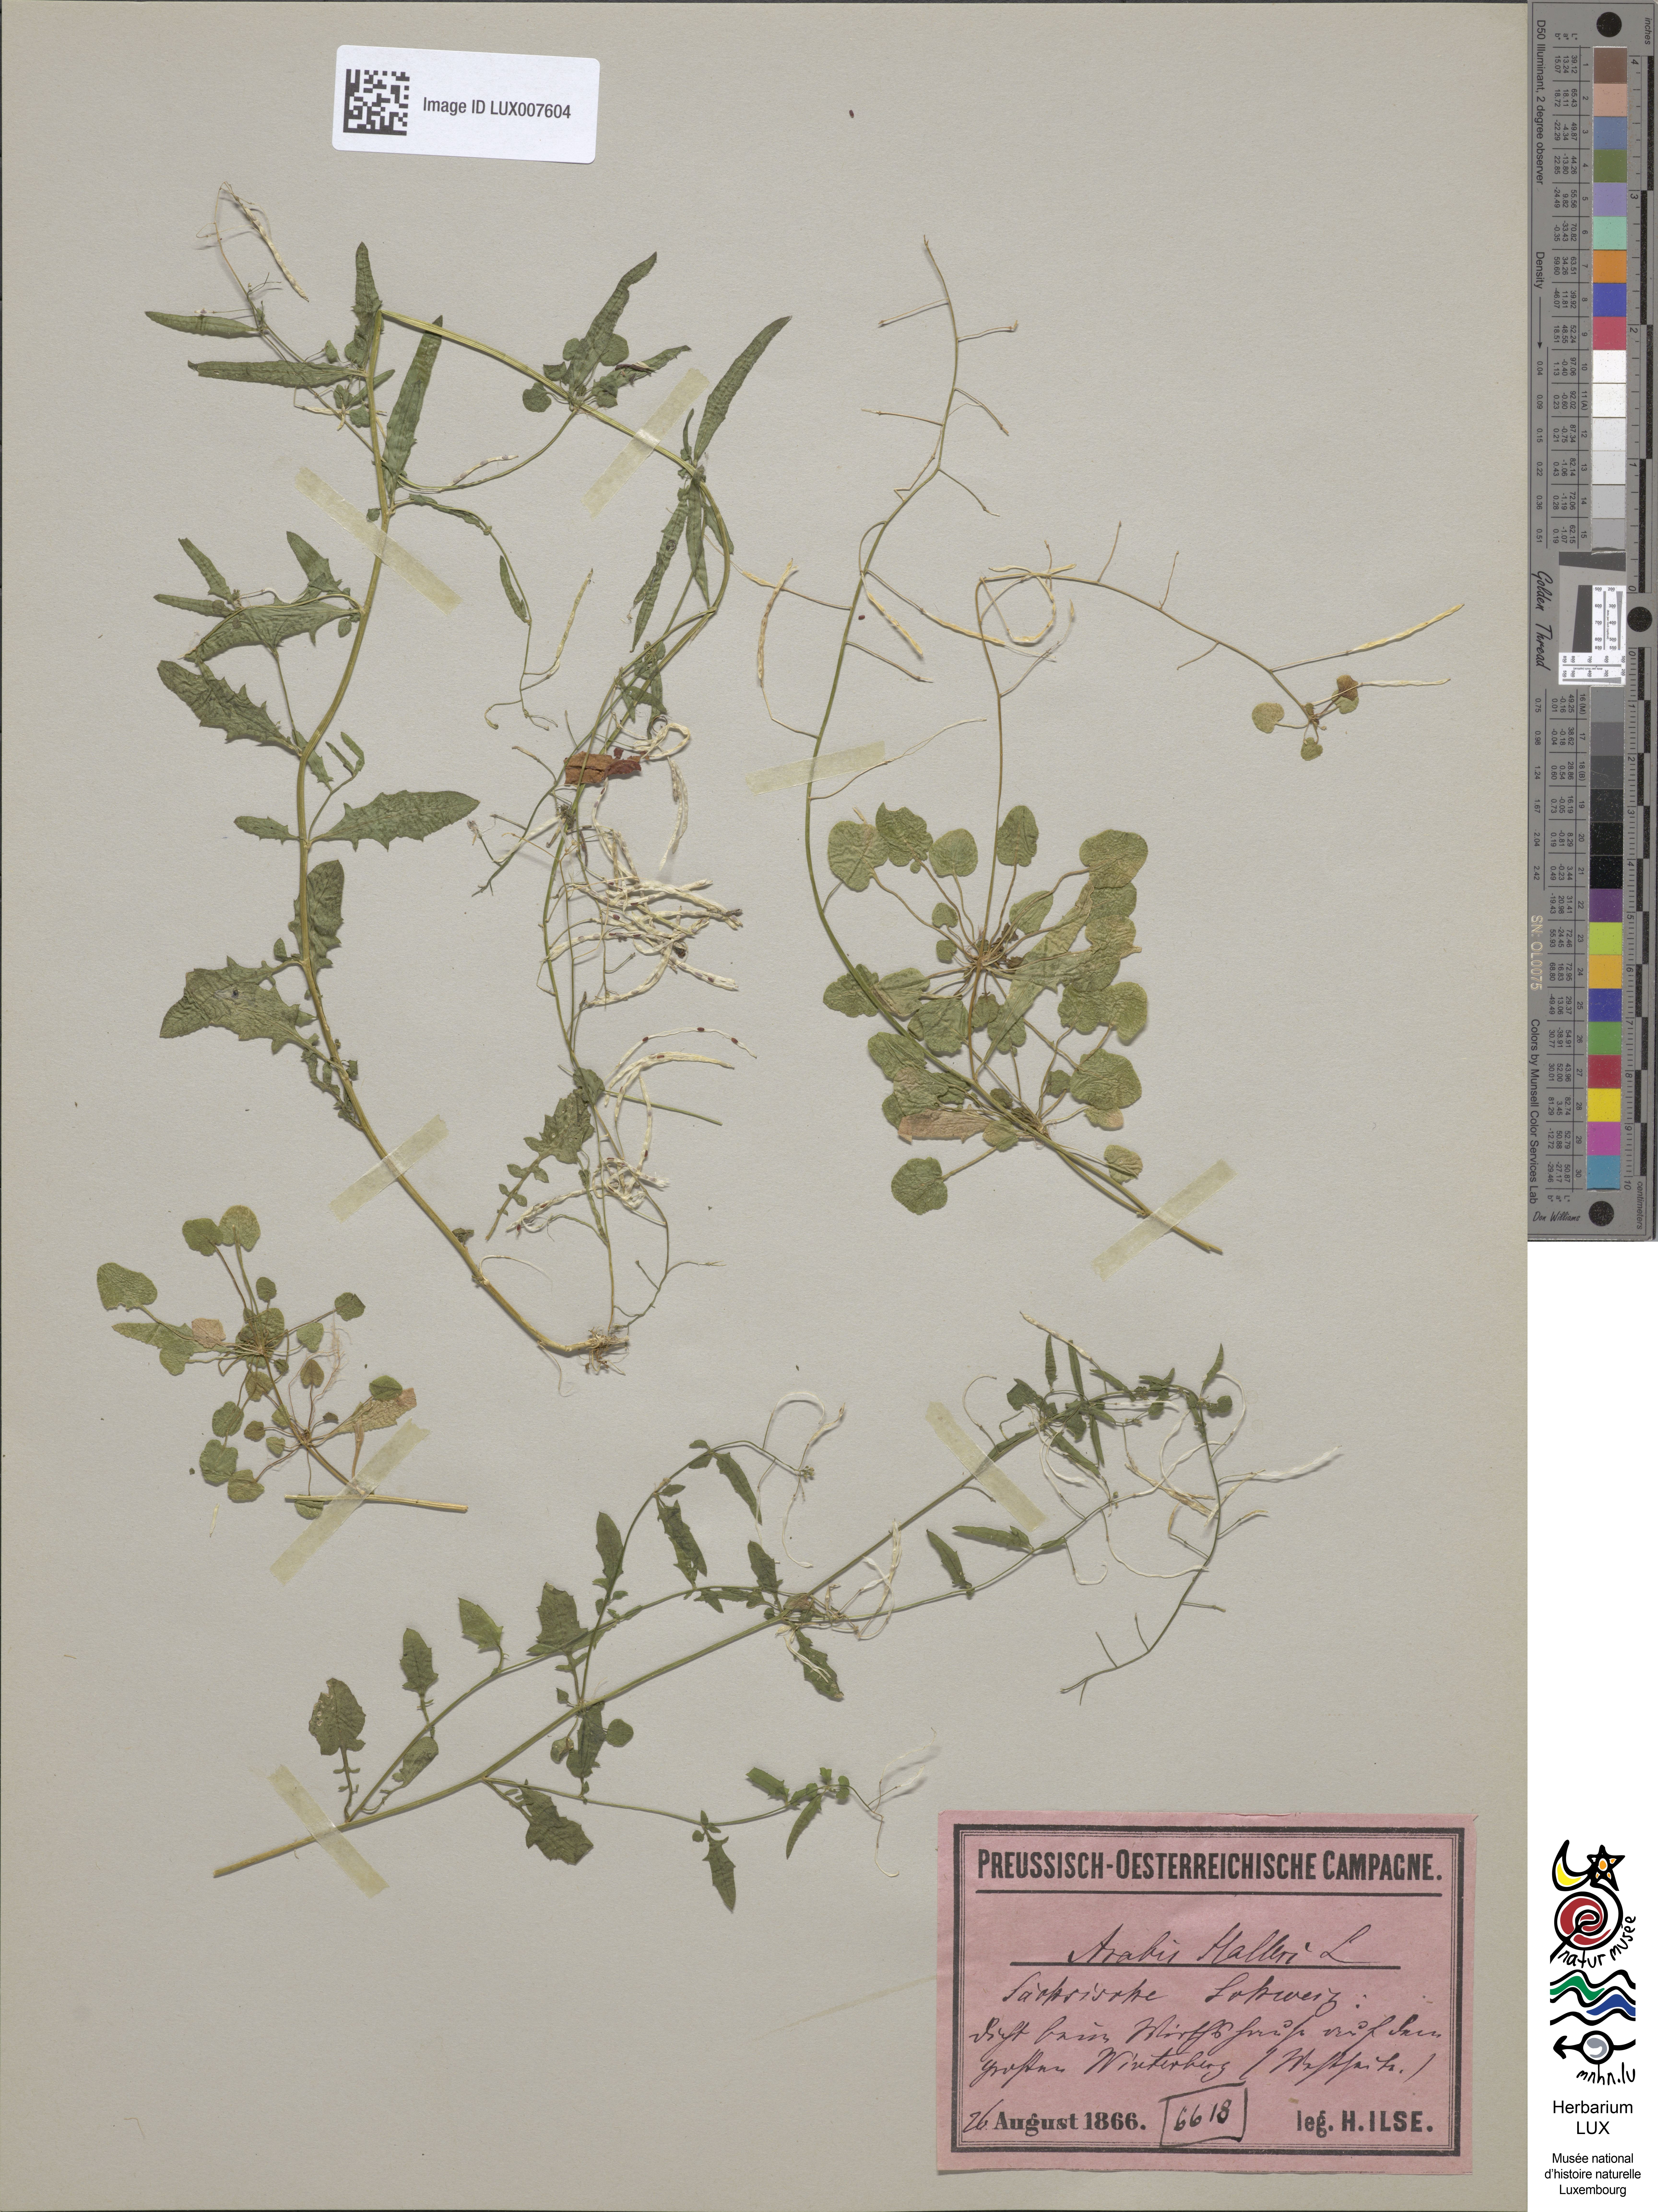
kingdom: Plantae
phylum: Tracheophyta
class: Magnoliopsida
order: Brassicales
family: Brassicaceae
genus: Arabidopsis
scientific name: Arabidopsis halleri
